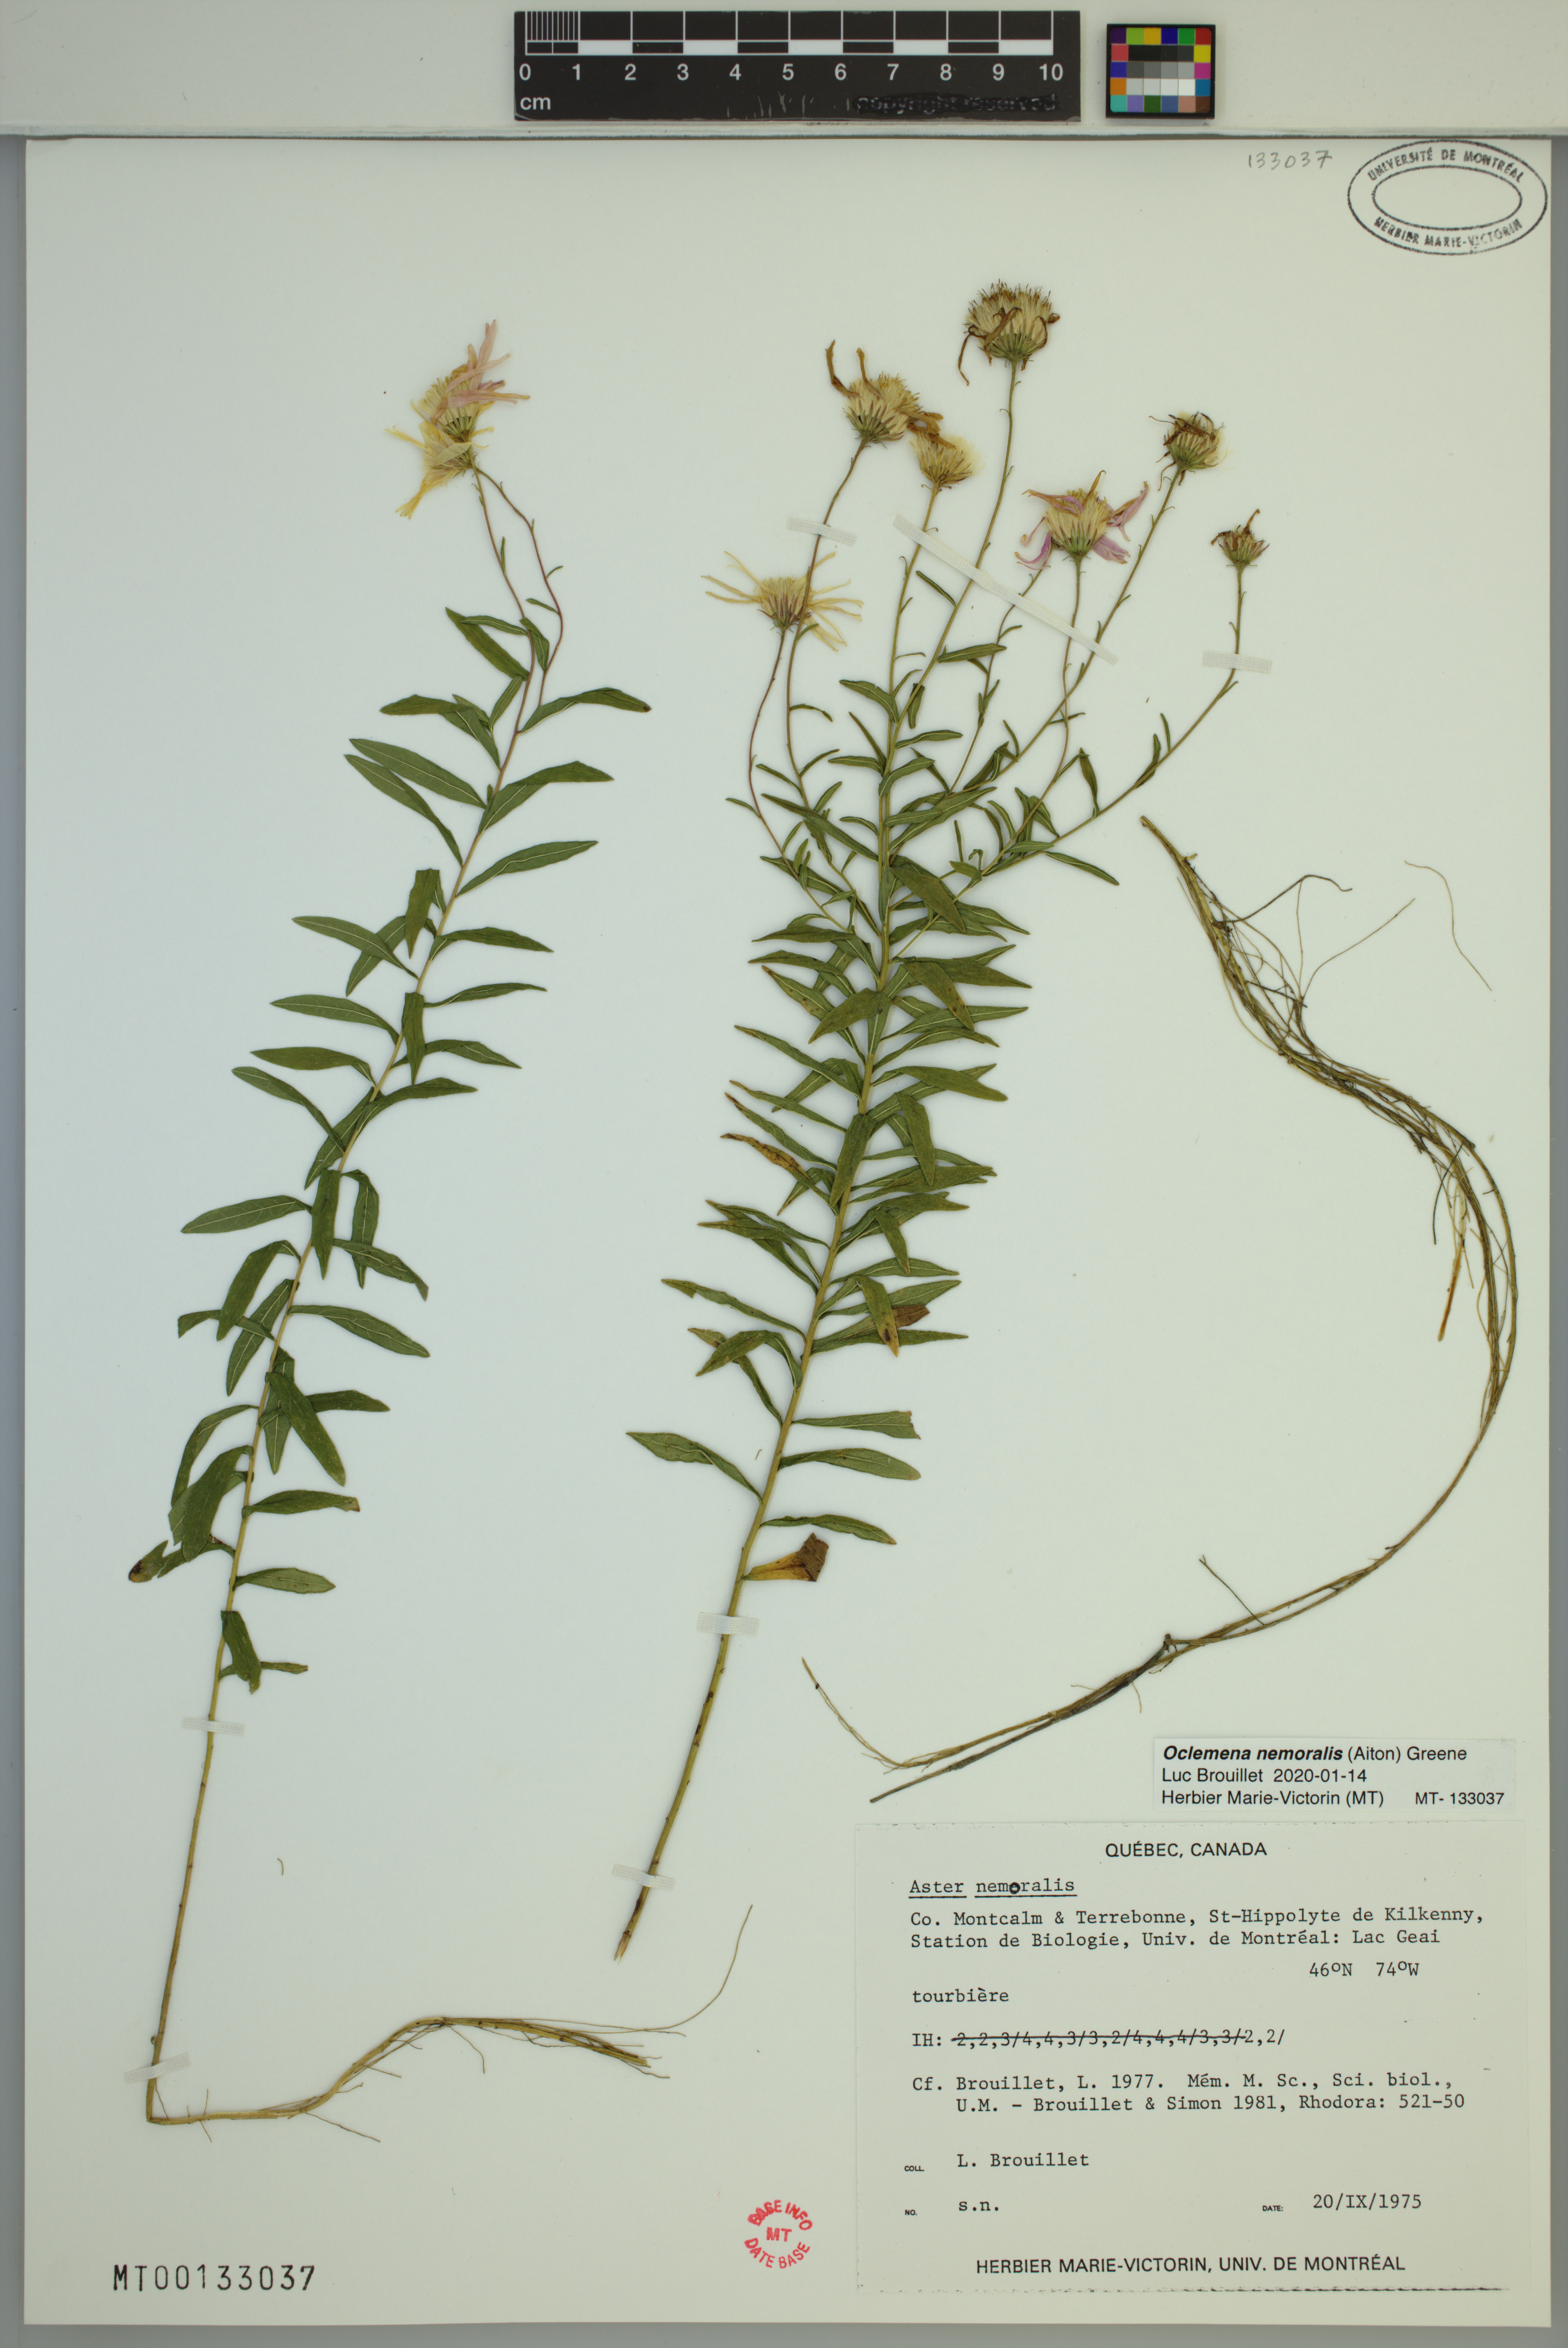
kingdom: Plantae
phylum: Tracheophyta
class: Magnoliopsida
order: Asterales
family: Asteraceae
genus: Oclemena
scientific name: Oclemena nemoralis
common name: Bog aster
